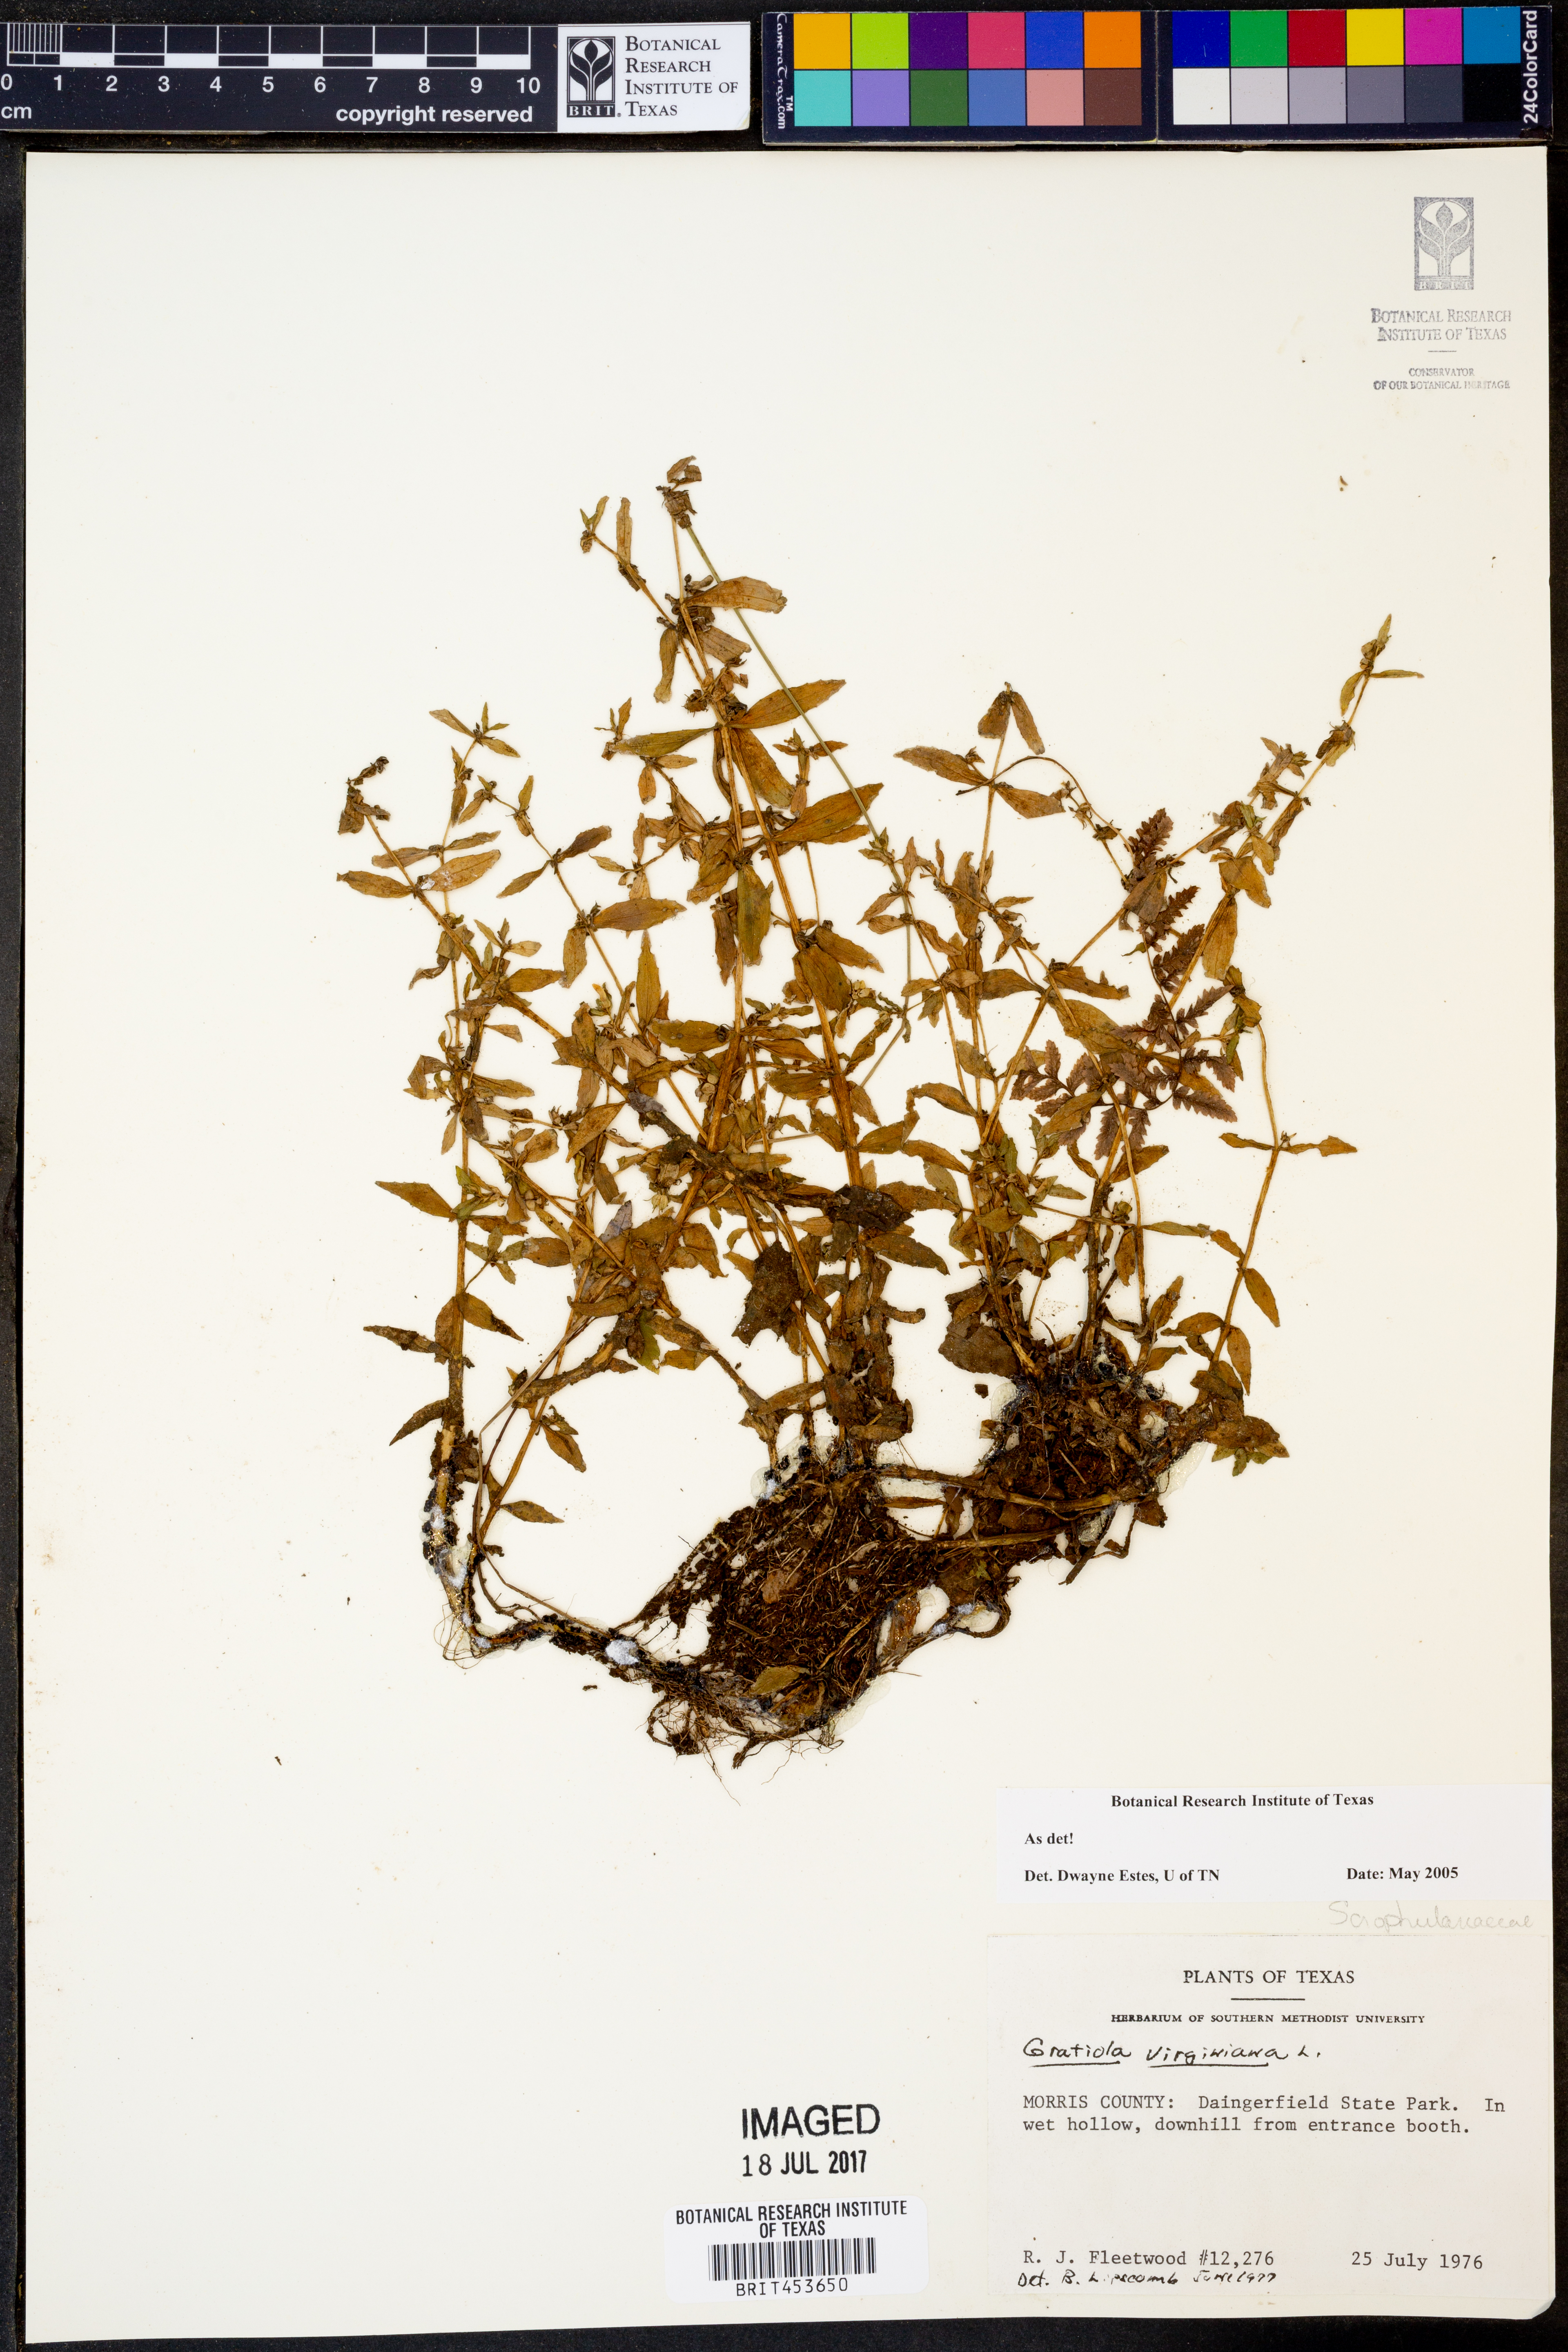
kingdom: Plantae
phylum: Tracheophyta
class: Magnoliopsida
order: Lamiales
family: Plantaginaceae
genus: Gratiola
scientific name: Gratiola virginiana
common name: Roundfruit hedgehyssop
